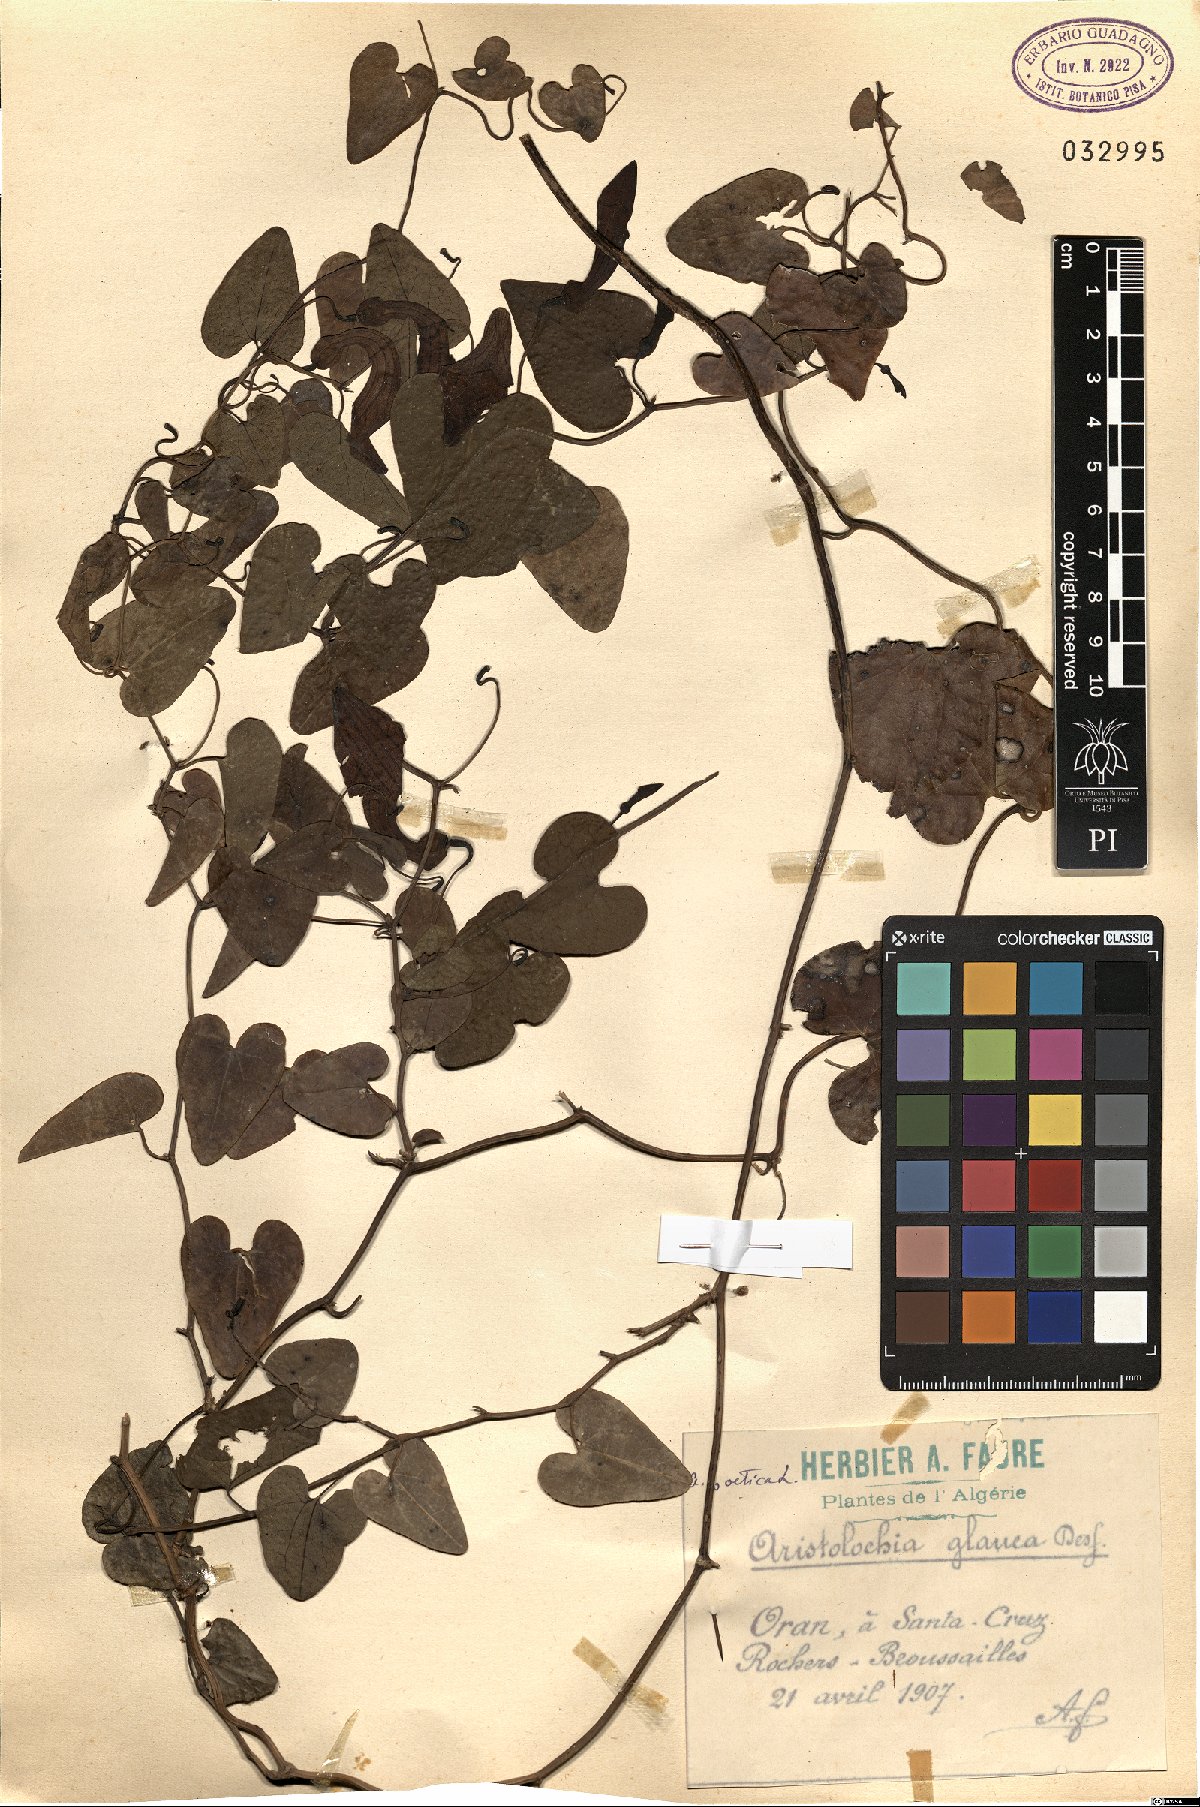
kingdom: Plantae
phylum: Tracheophyta
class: Magnoliopsida
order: Piperales
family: Aristolochiaceae
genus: Aristolochia
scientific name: Aristolochia baetica
